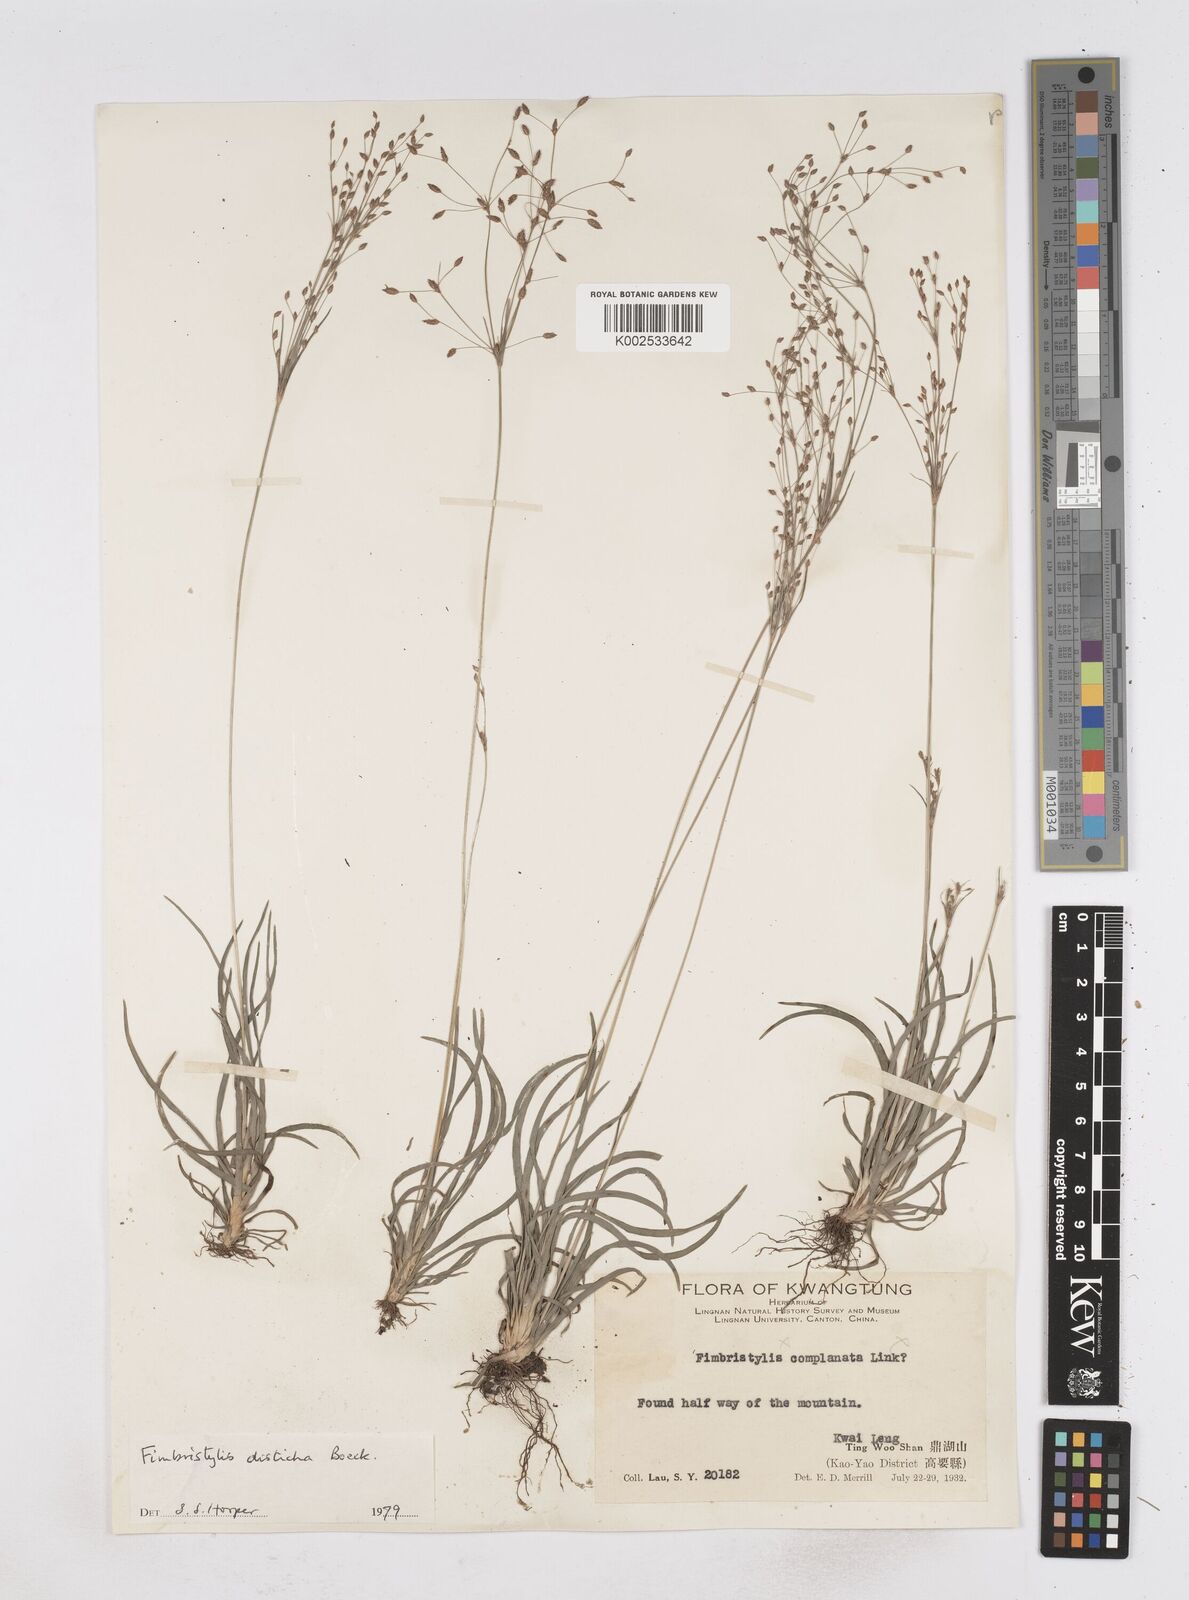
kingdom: Plantae
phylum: Tracheophyta
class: Liliopsida
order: Poales
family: Cyperaceae
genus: Fimbristylis
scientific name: Fimbristylis disticha
